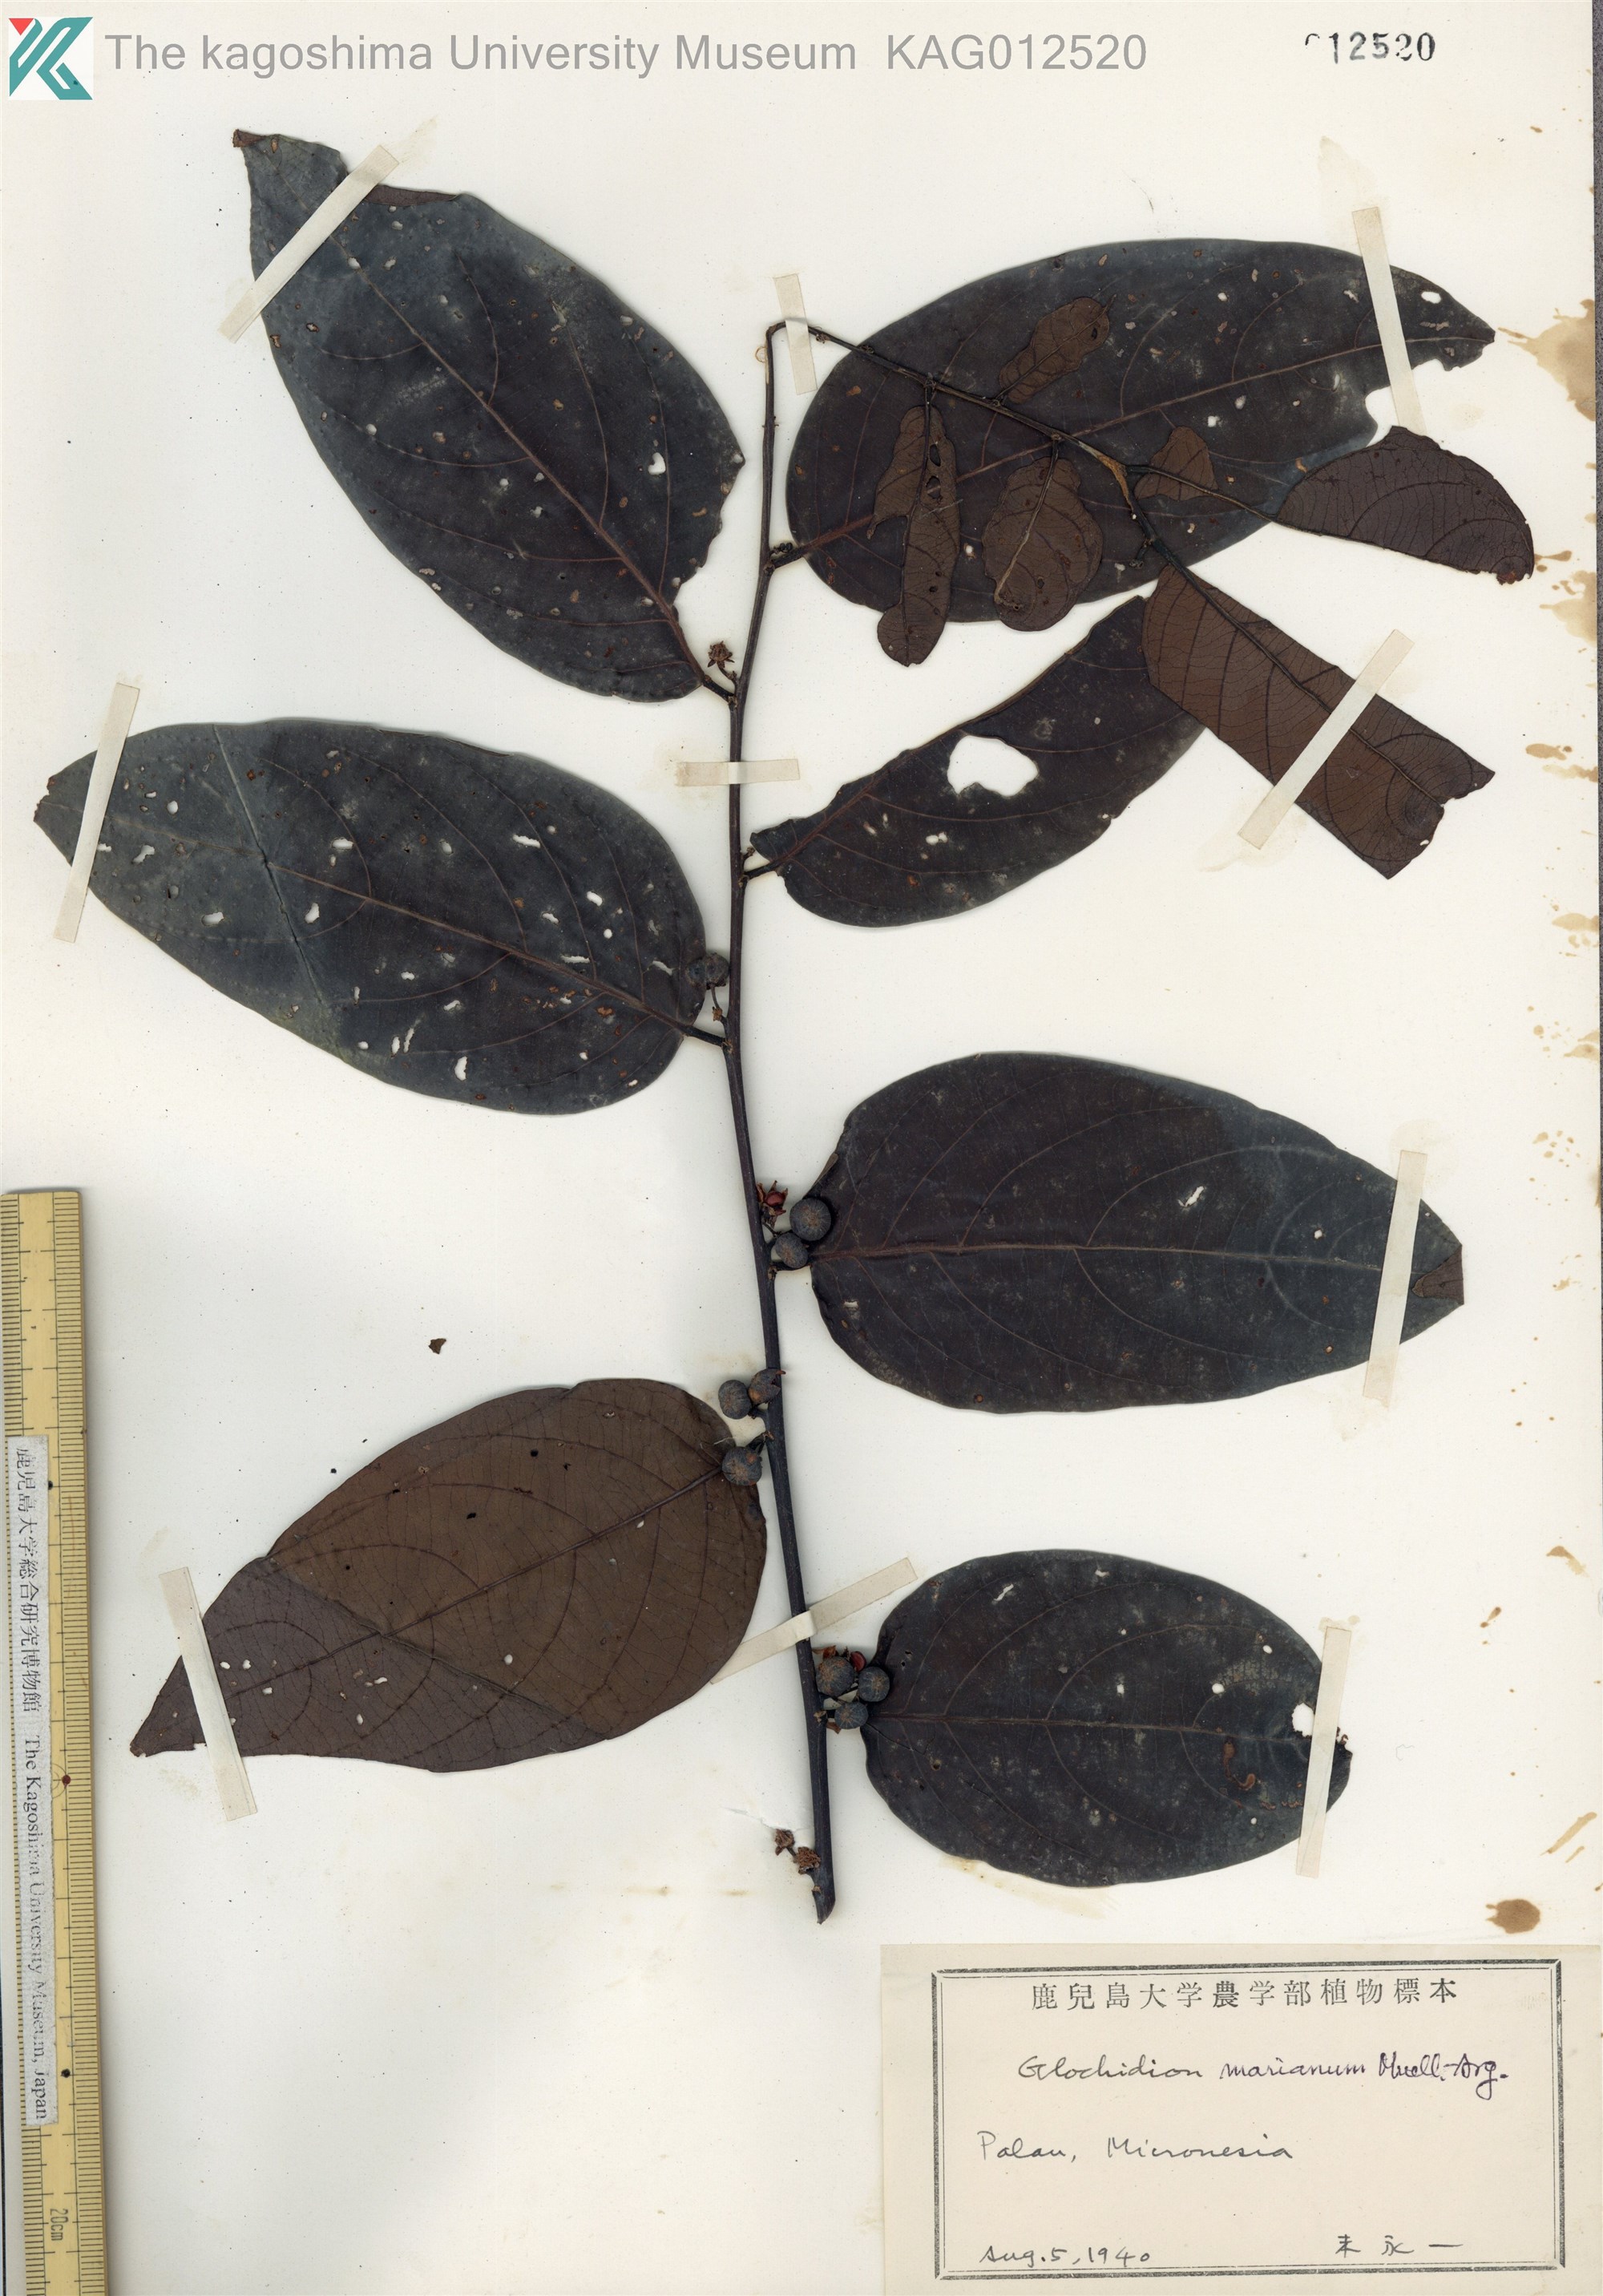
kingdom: Plantae
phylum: Tracheophyta
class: Magnoliopsida
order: Malpighiales
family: Phyllanthaceae
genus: Glochidion
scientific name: Glochidion marianum
